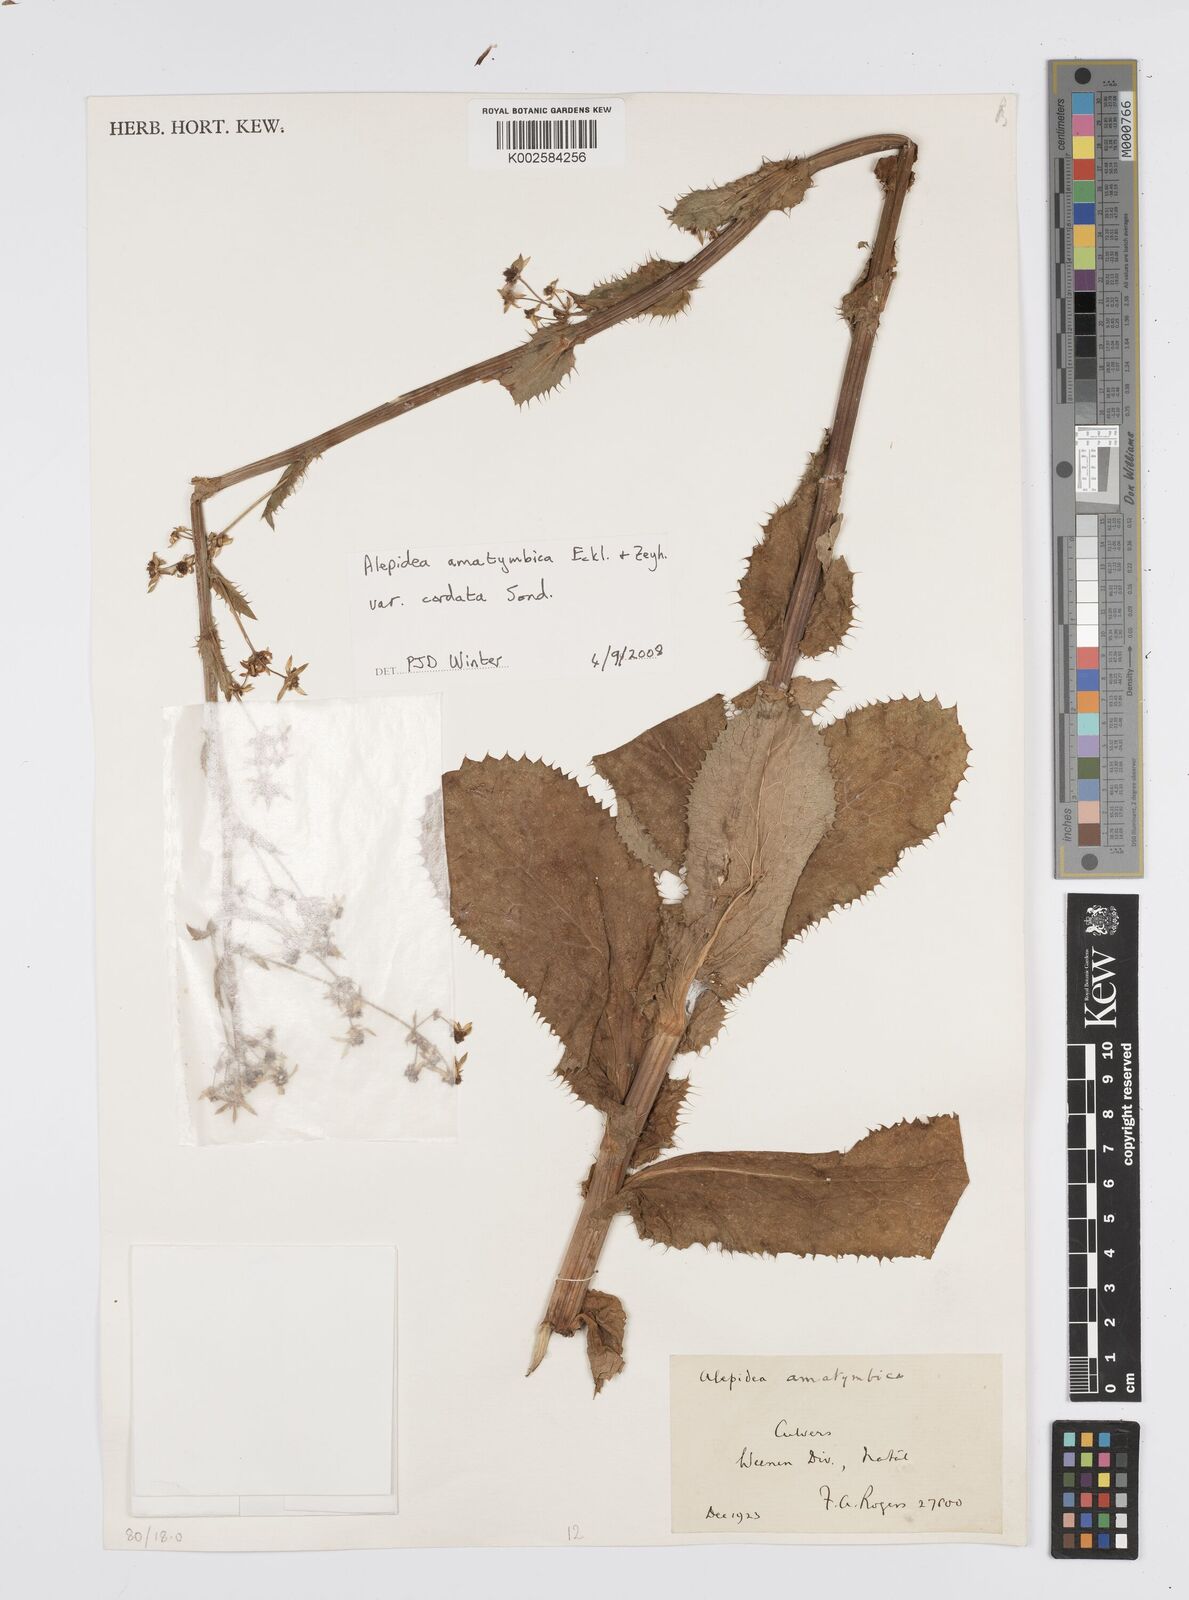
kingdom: Plantae
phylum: Tracheophyta
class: Magnoliopsida
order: Apiales
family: Apiaceae
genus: Alepidea
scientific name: Alepidea cordifolia
